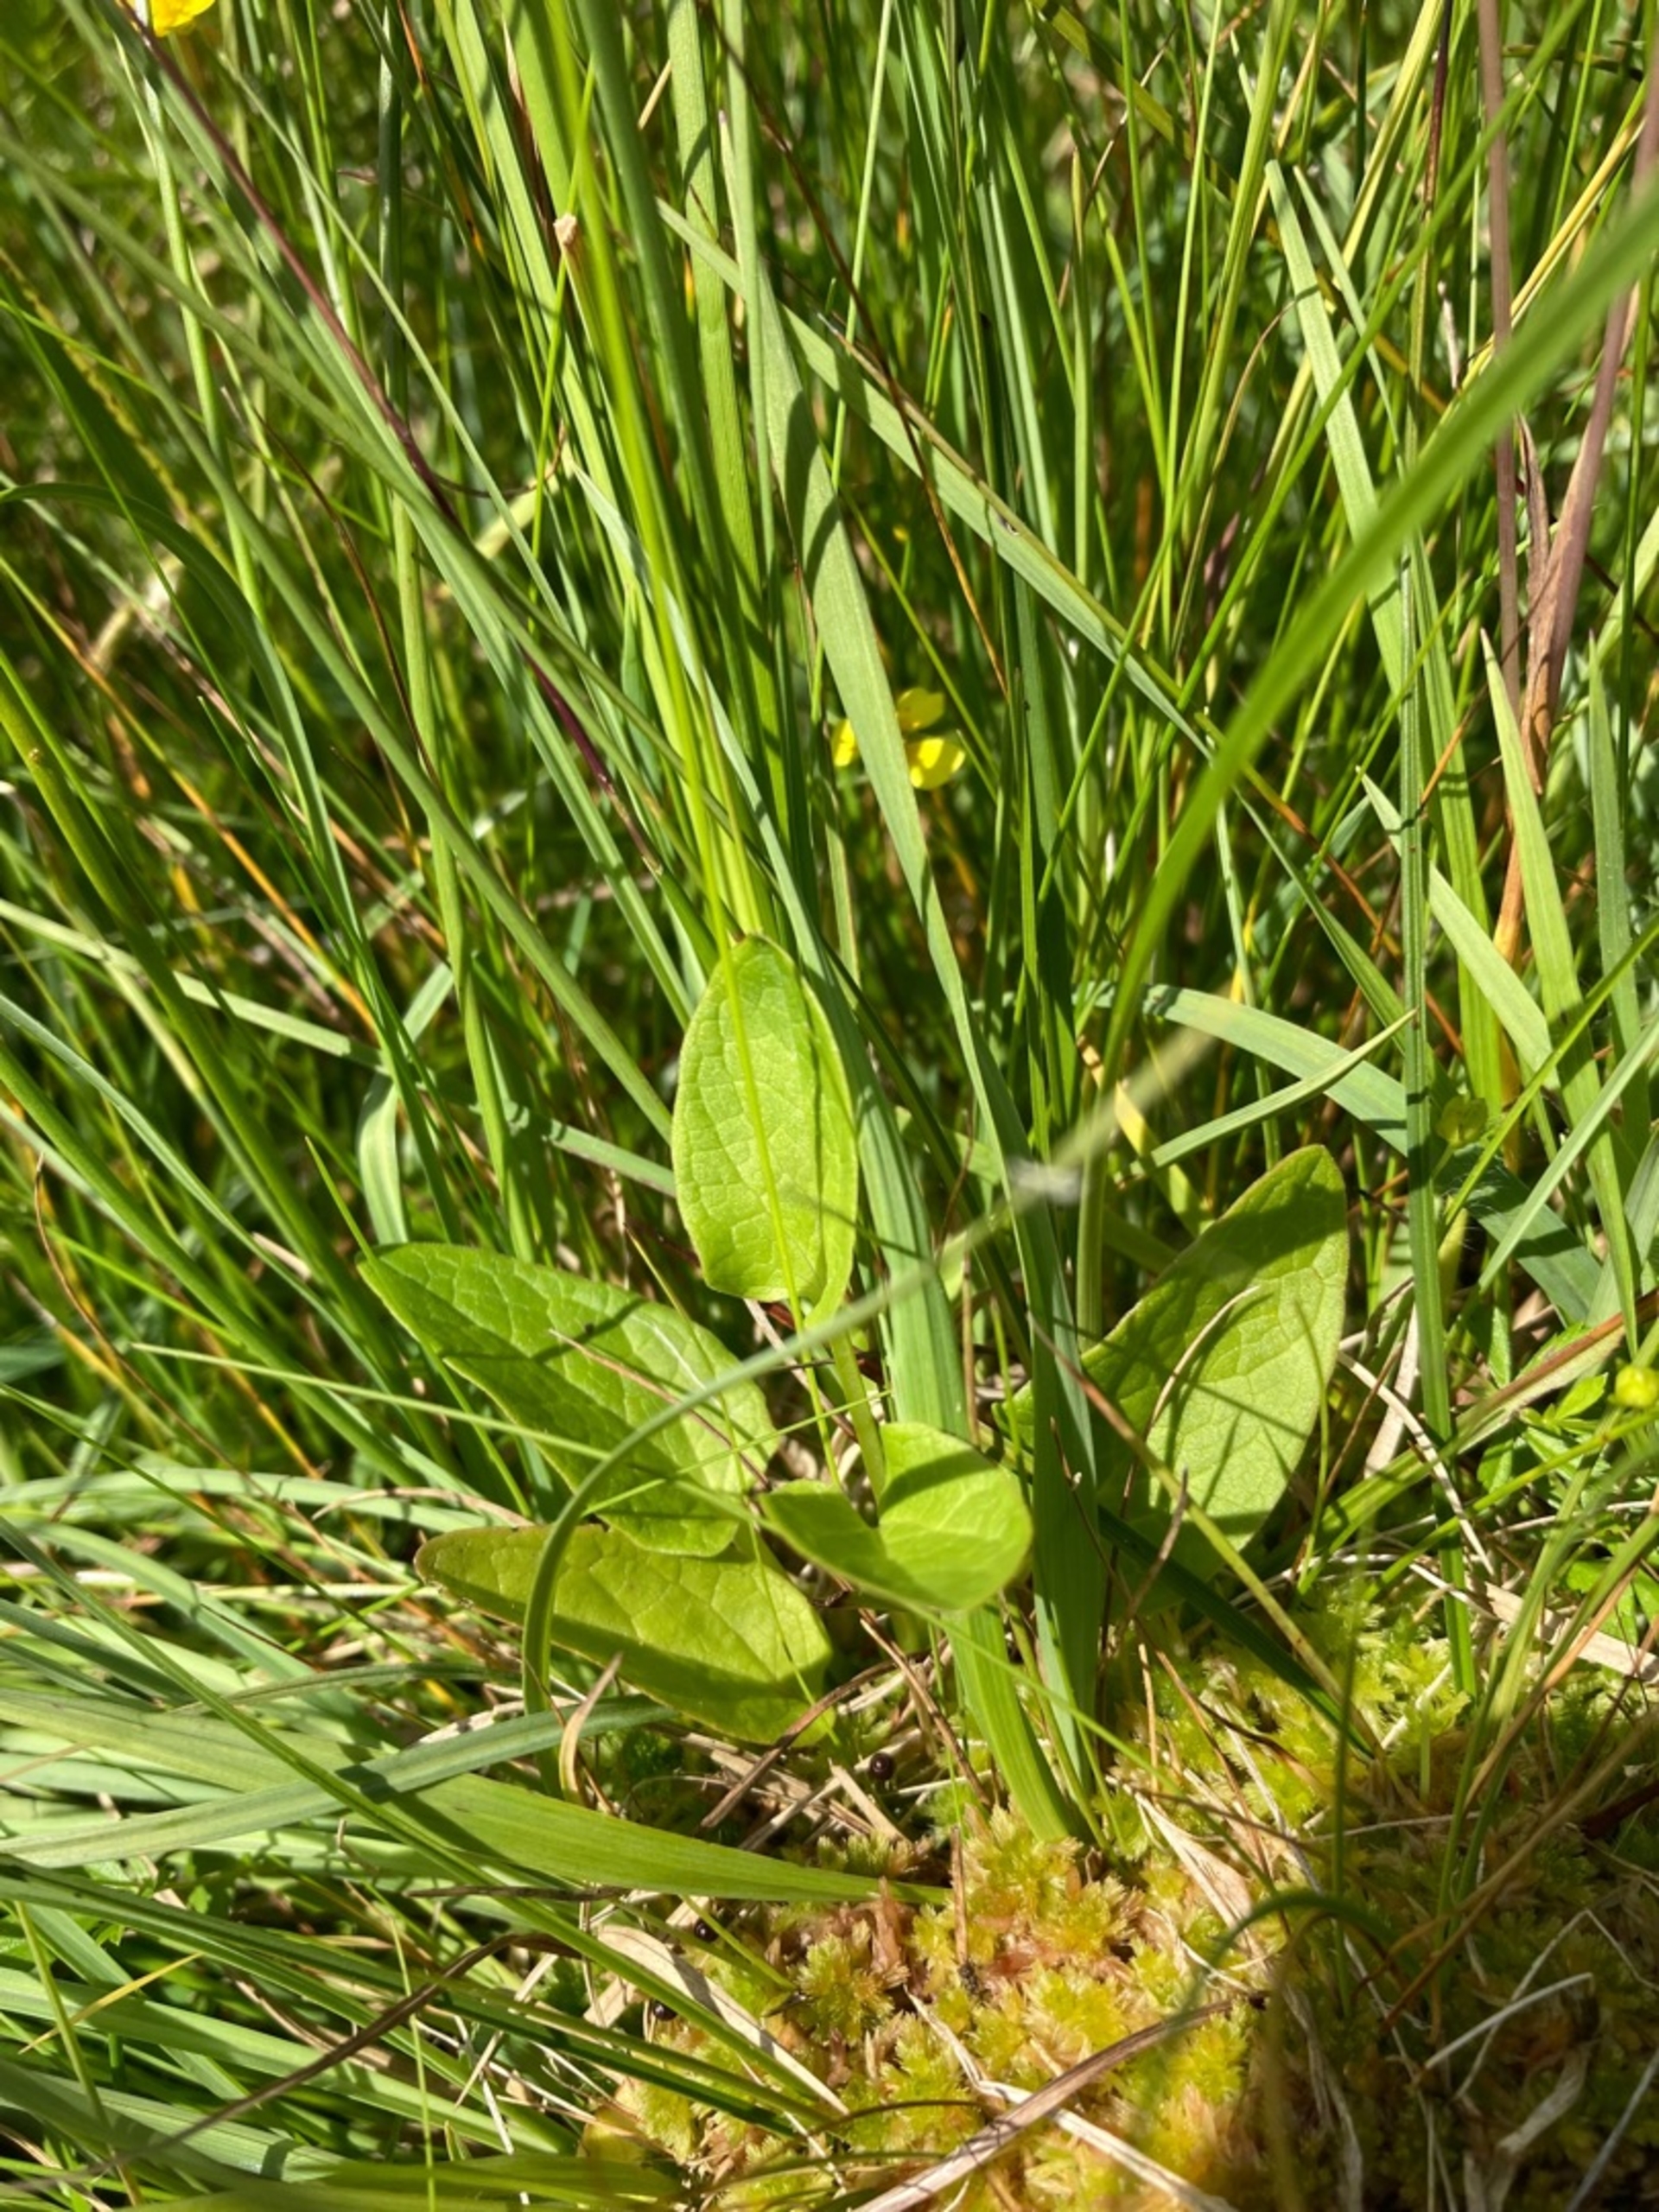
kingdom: Plantae
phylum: Tracheophyta
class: Magnoliopsida
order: Dipsacales
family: Caprifoliaceae
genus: Valeriana
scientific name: Valeriana dioica
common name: Tvebo baldrian
